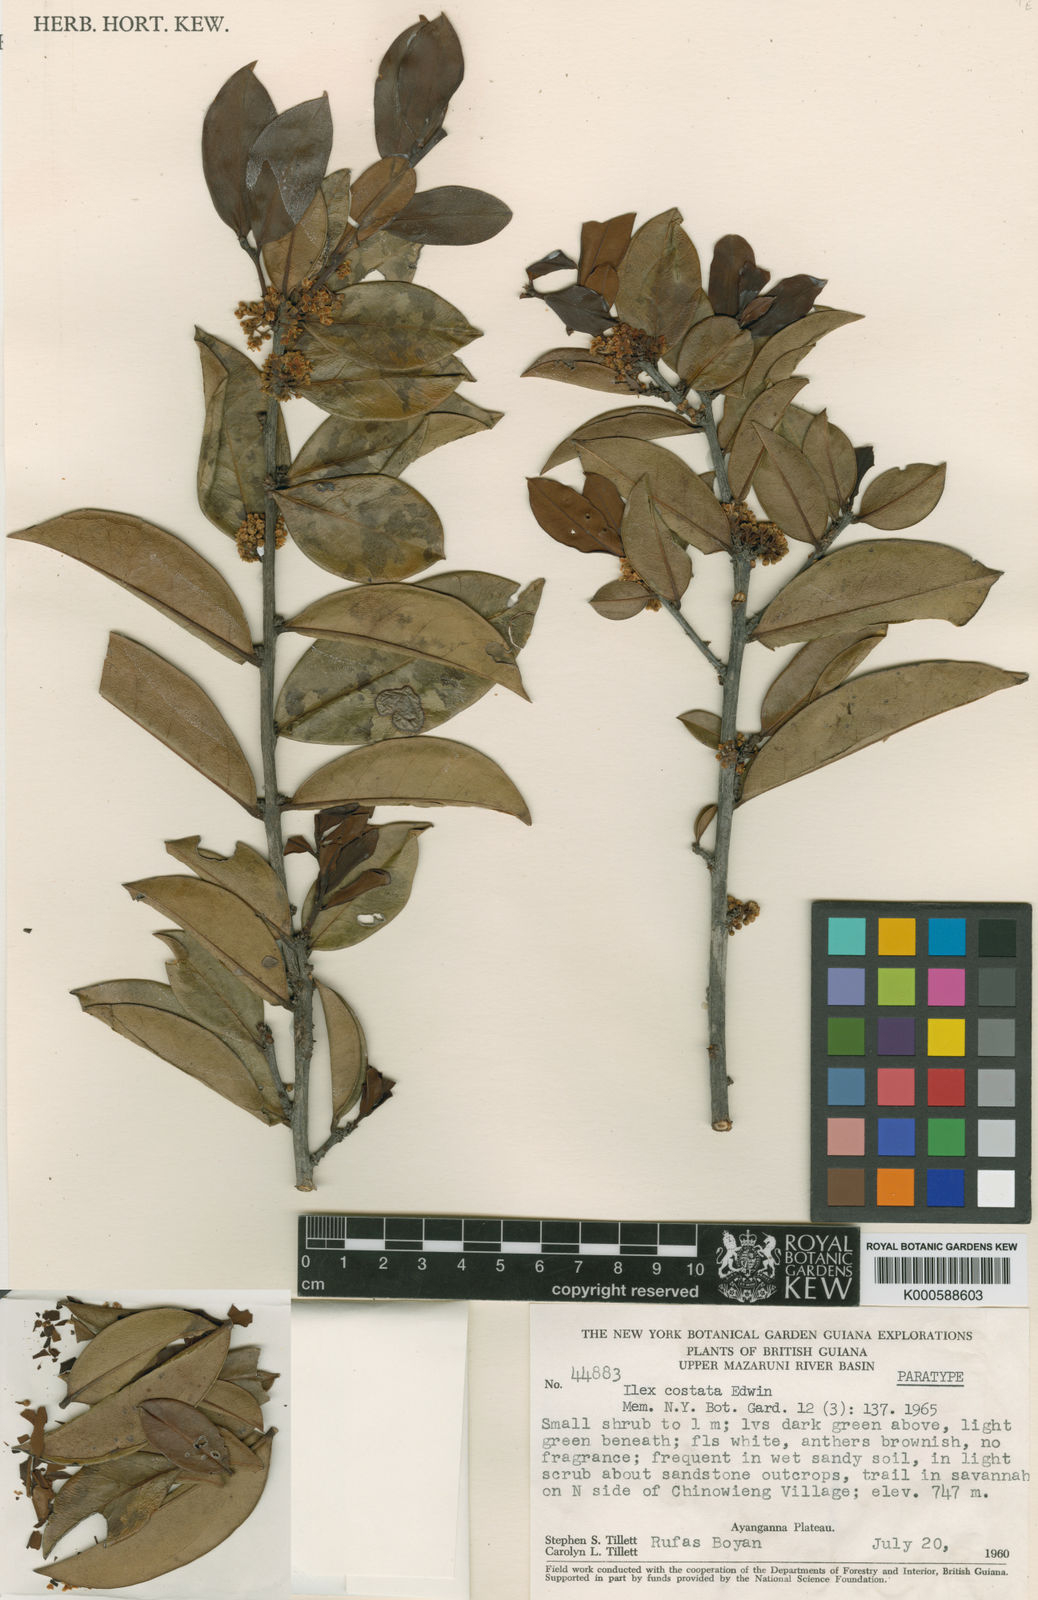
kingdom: Plantae
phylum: Tracheophyta
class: Magnoliopsida
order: Aquifoliales
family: Aquifoliaceae
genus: Ilex
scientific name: Ilex
